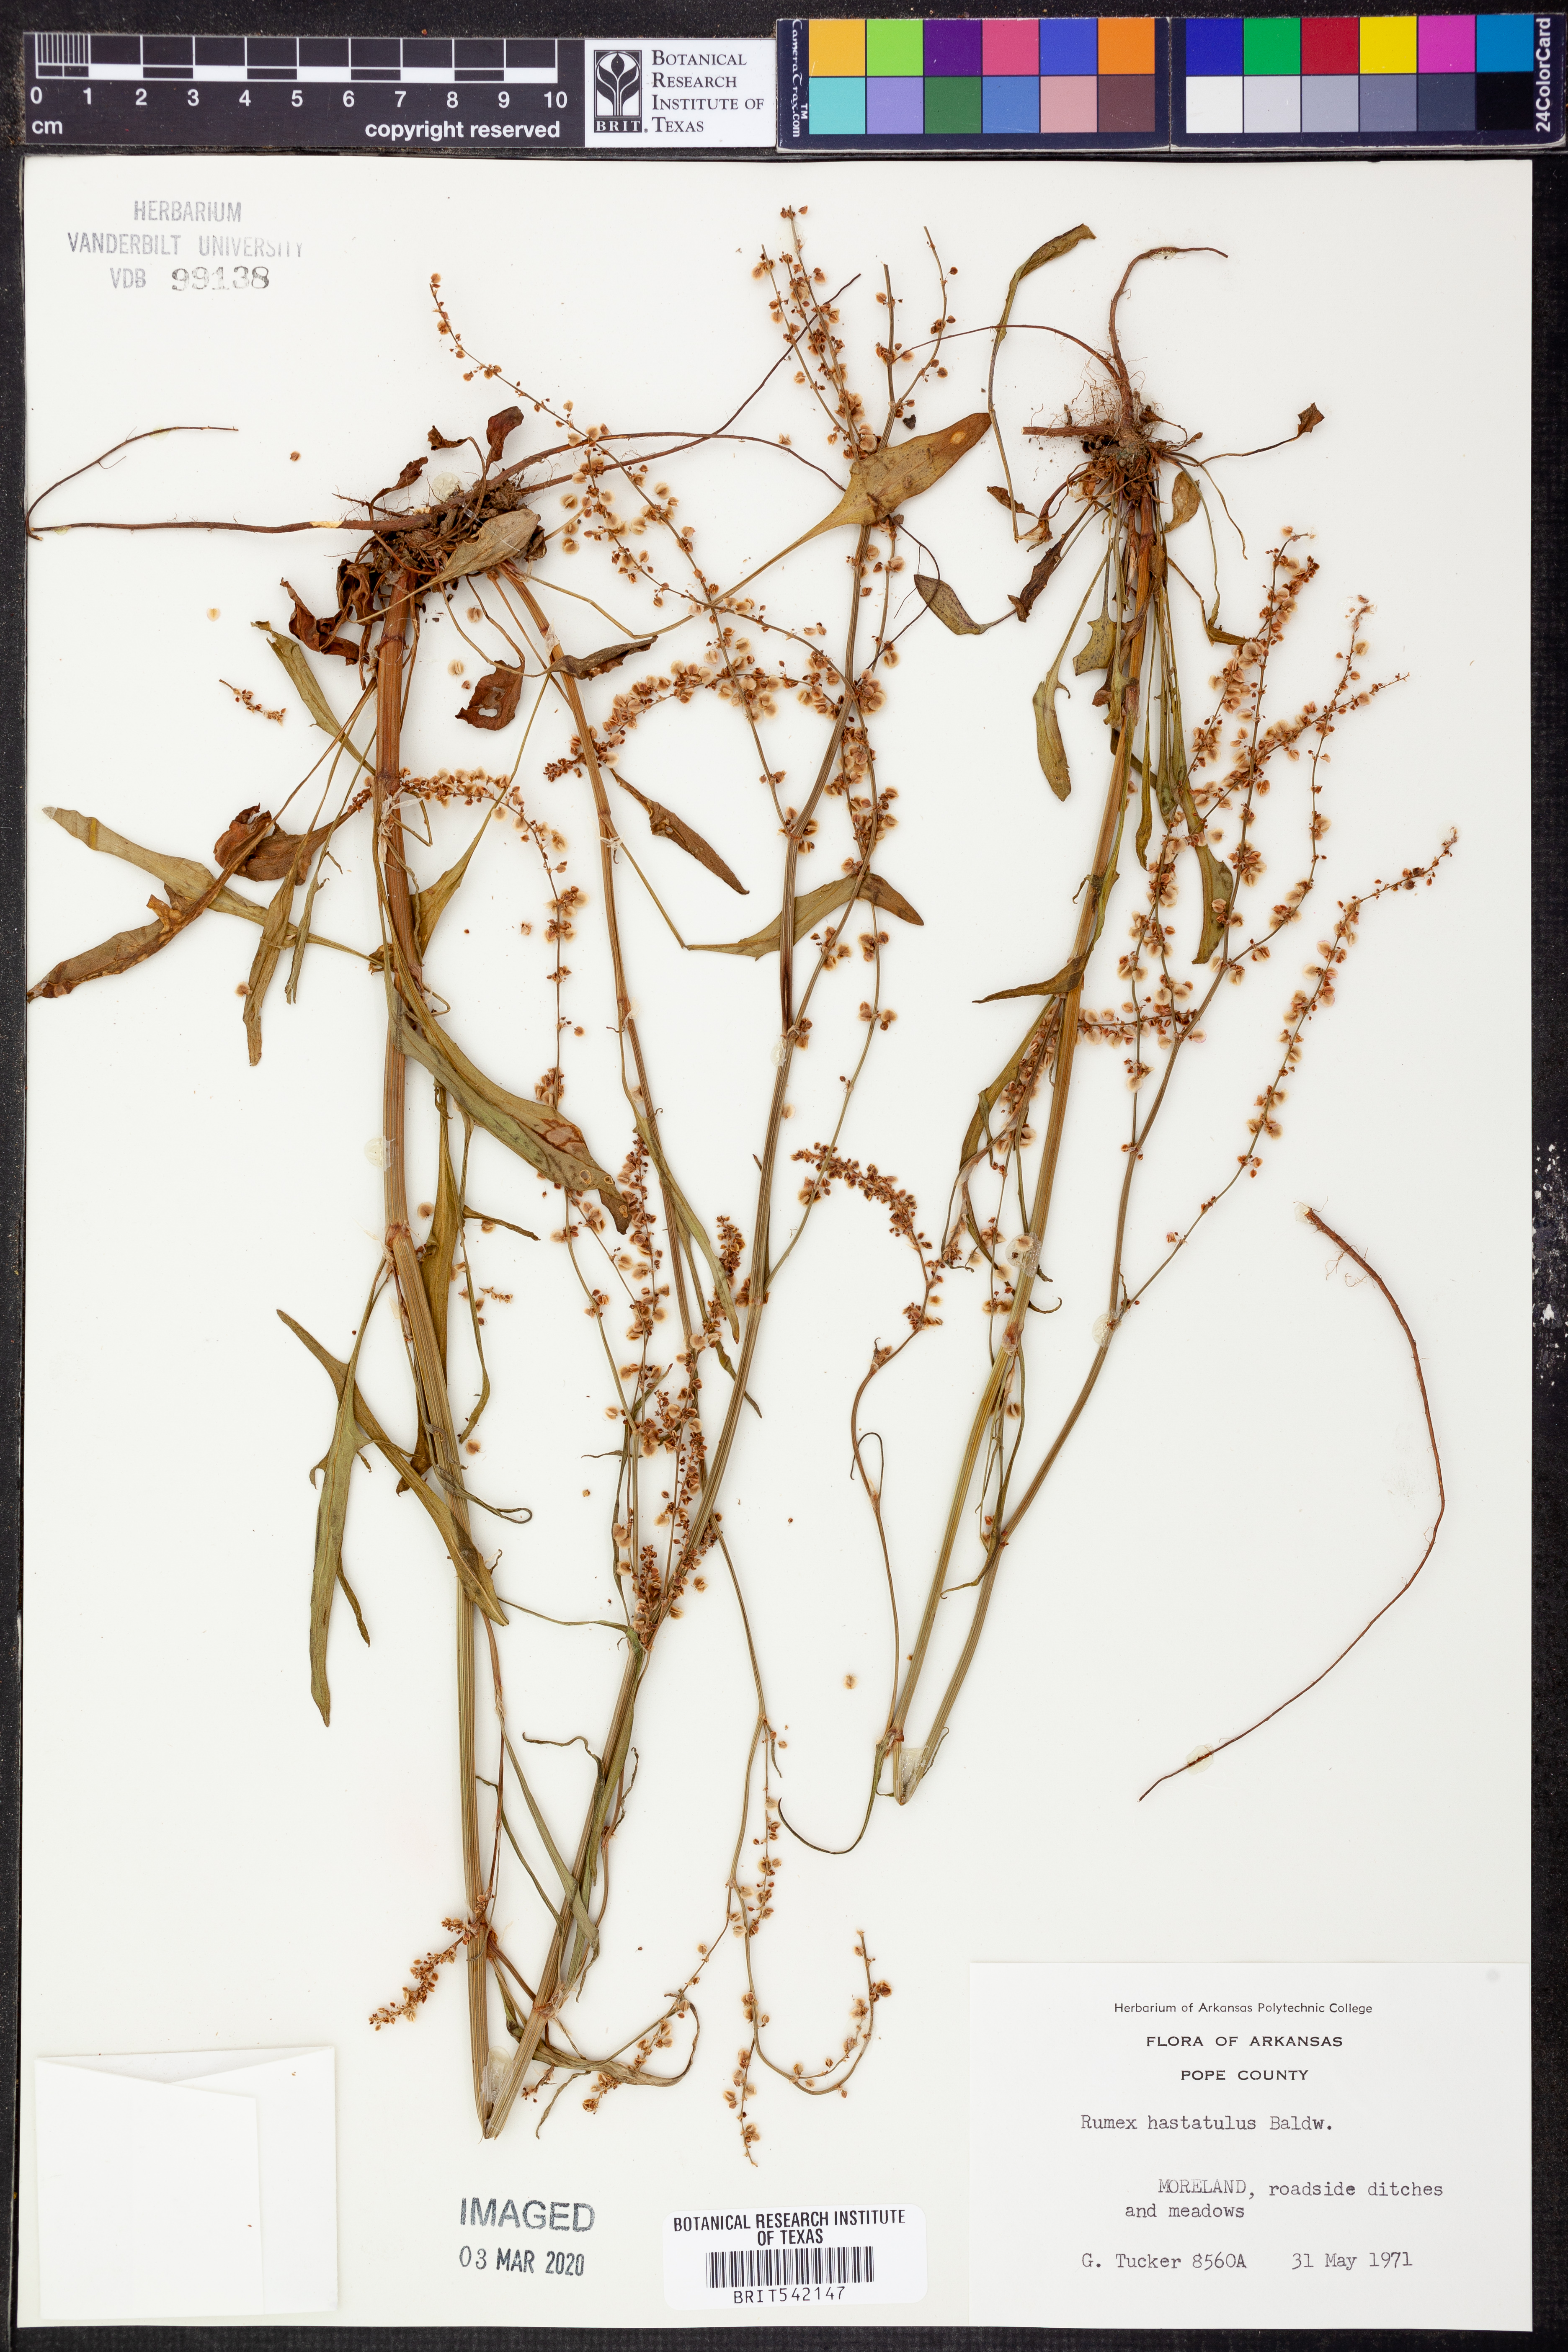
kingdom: Plantae
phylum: Tracheophyta
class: Magnoliopsida
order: Caryophyllales
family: Polygonaceae
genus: Rumex
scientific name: Rumex hastatulus
